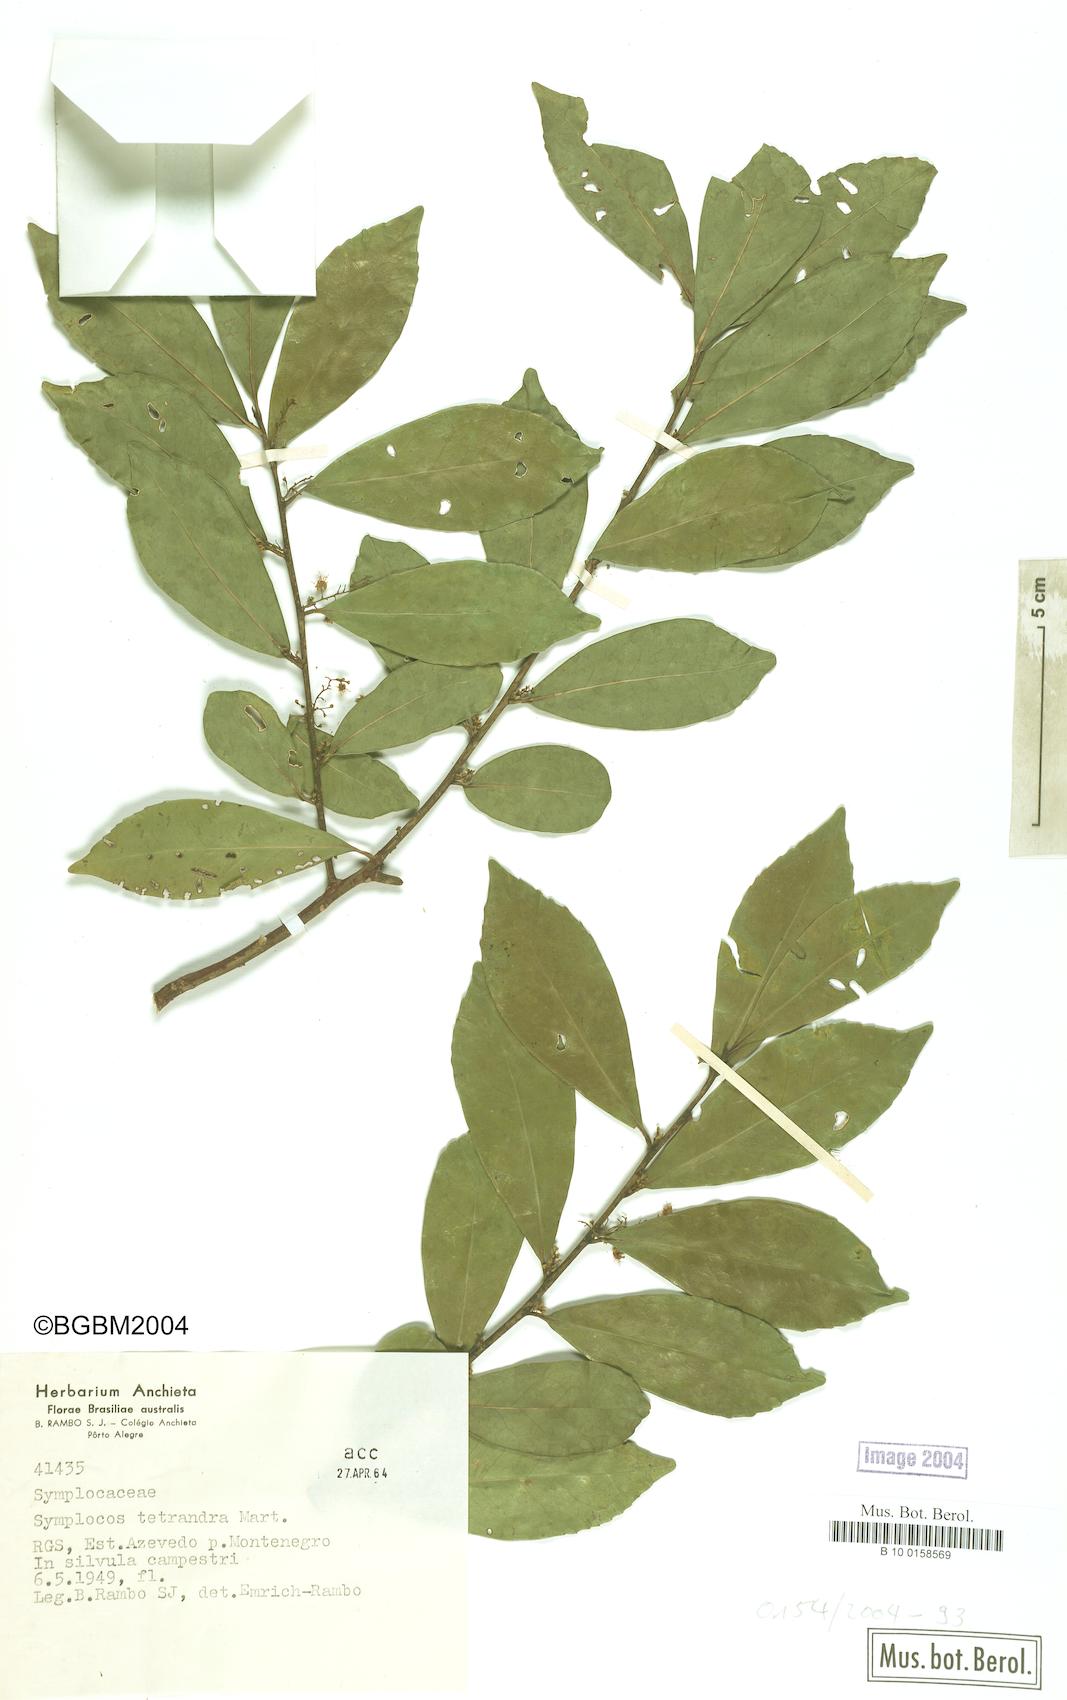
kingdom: Plantae
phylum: Tracheophyta
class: Magnoliopsida
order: Ericales
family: Symplocaceae
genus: Symplocos
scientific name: Symplocos tetrandra
